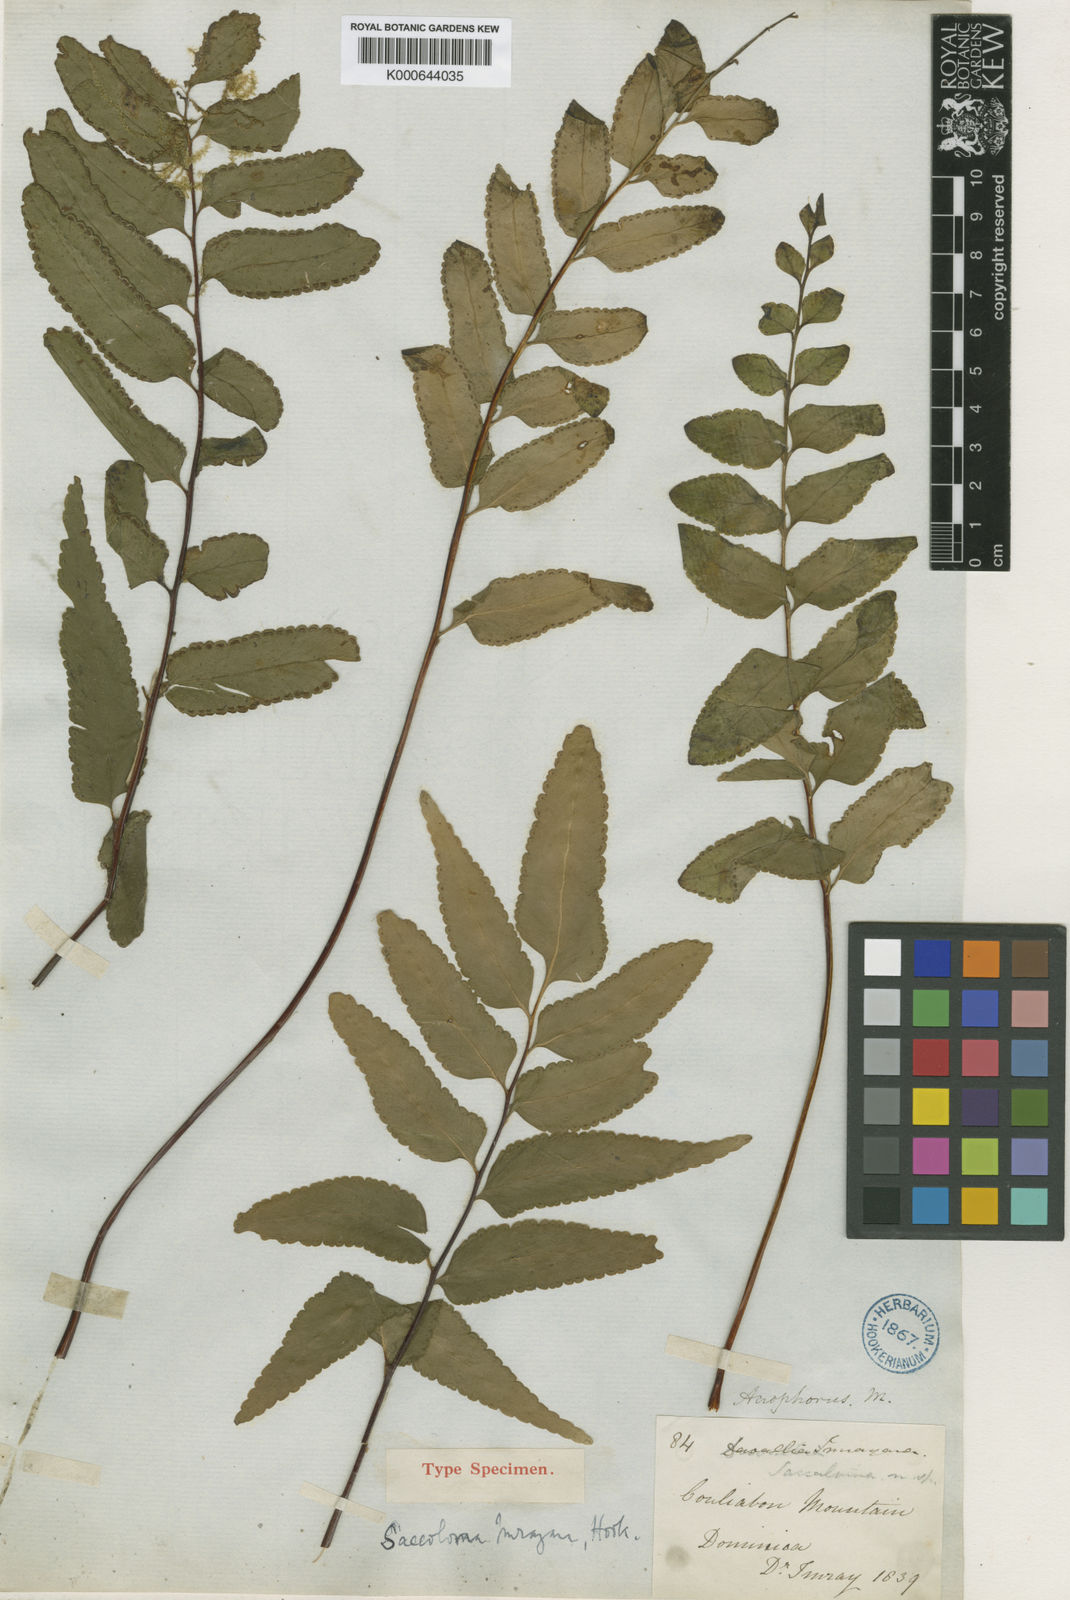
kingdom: Plantae
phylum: Tracheophyta
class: Polypodiopsida
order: Polypodiales
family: Lindsaeaceae
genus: Lindsaea
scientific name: Lindsaea imrayana
